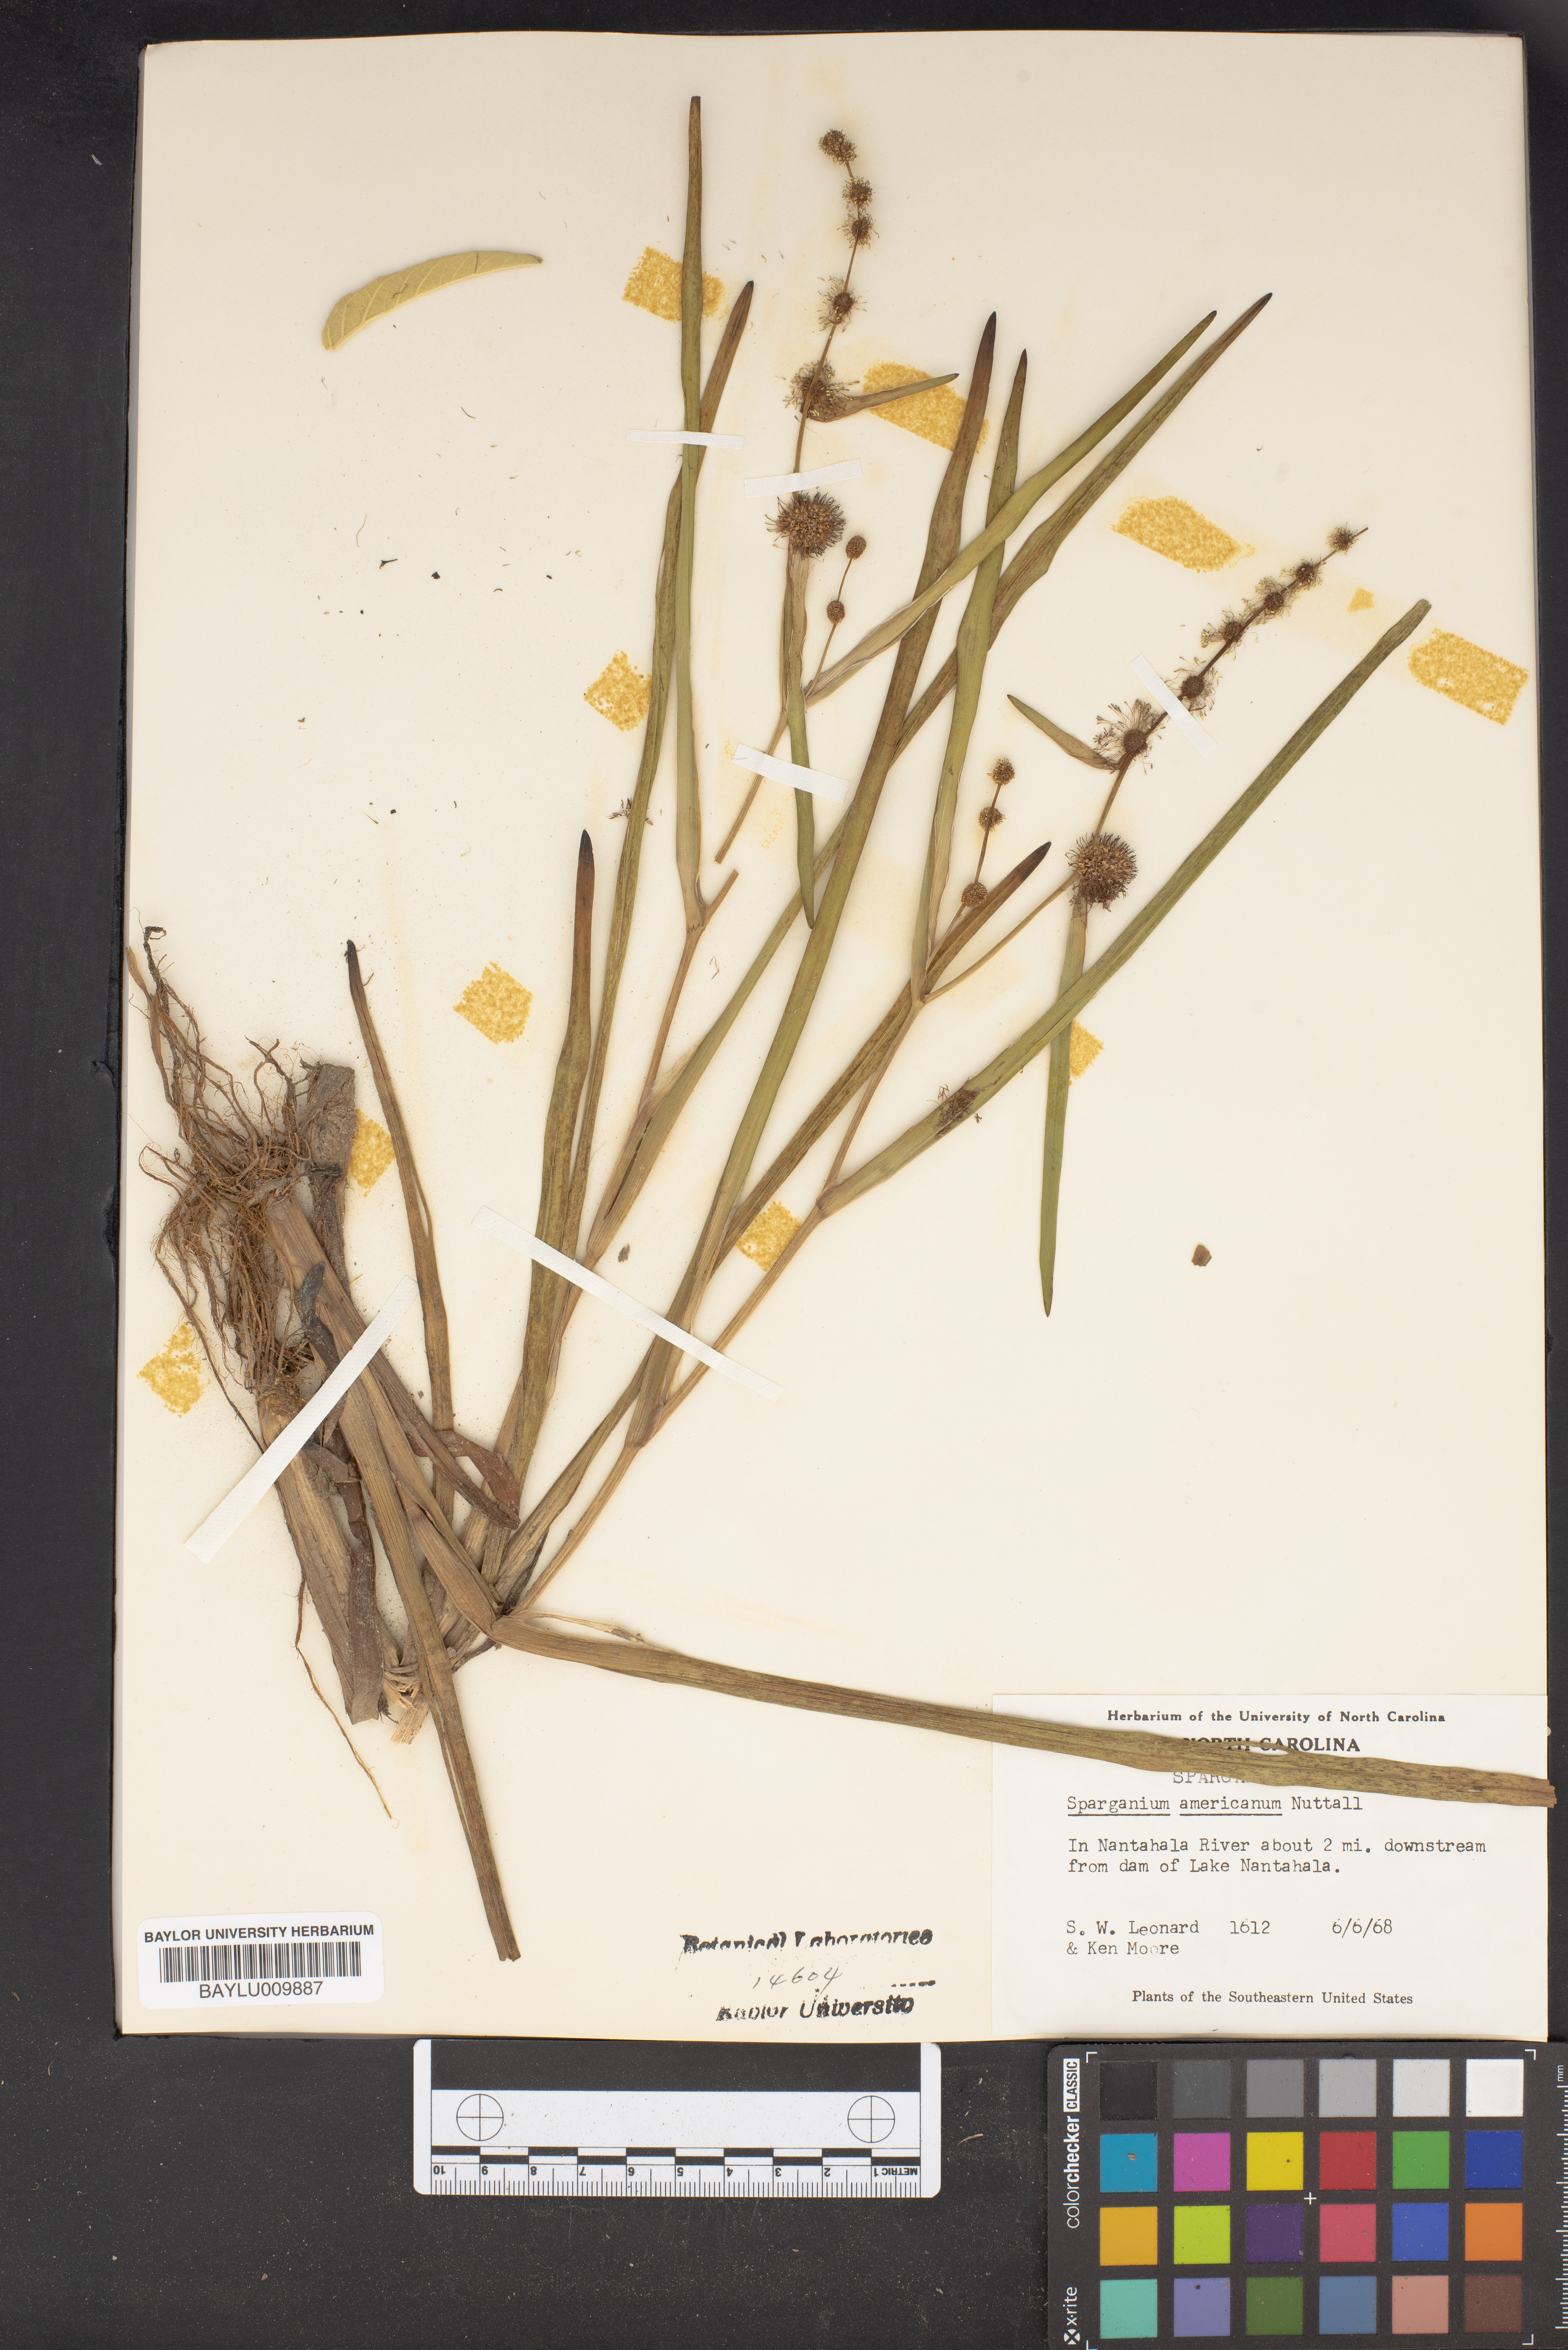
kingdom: Plantae
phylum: Tracheophyta
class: Liliopsida
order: Poales
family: Typhaceae
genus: Sparganium
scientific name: Sparganium americanum
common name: American burreed
